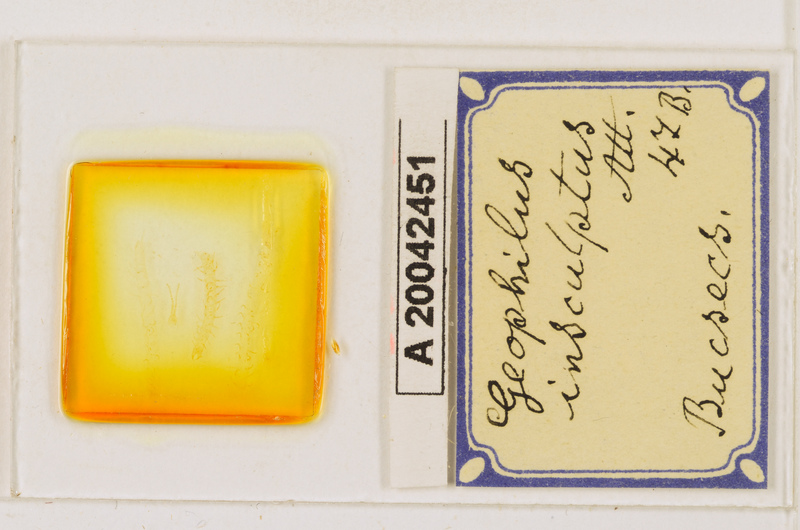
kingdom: Animalia
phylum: Arthropoda
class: Chilopoda
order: Geophilomorpha
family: Geophilidae
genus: Geophilus
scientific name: Geophilus insculptus
